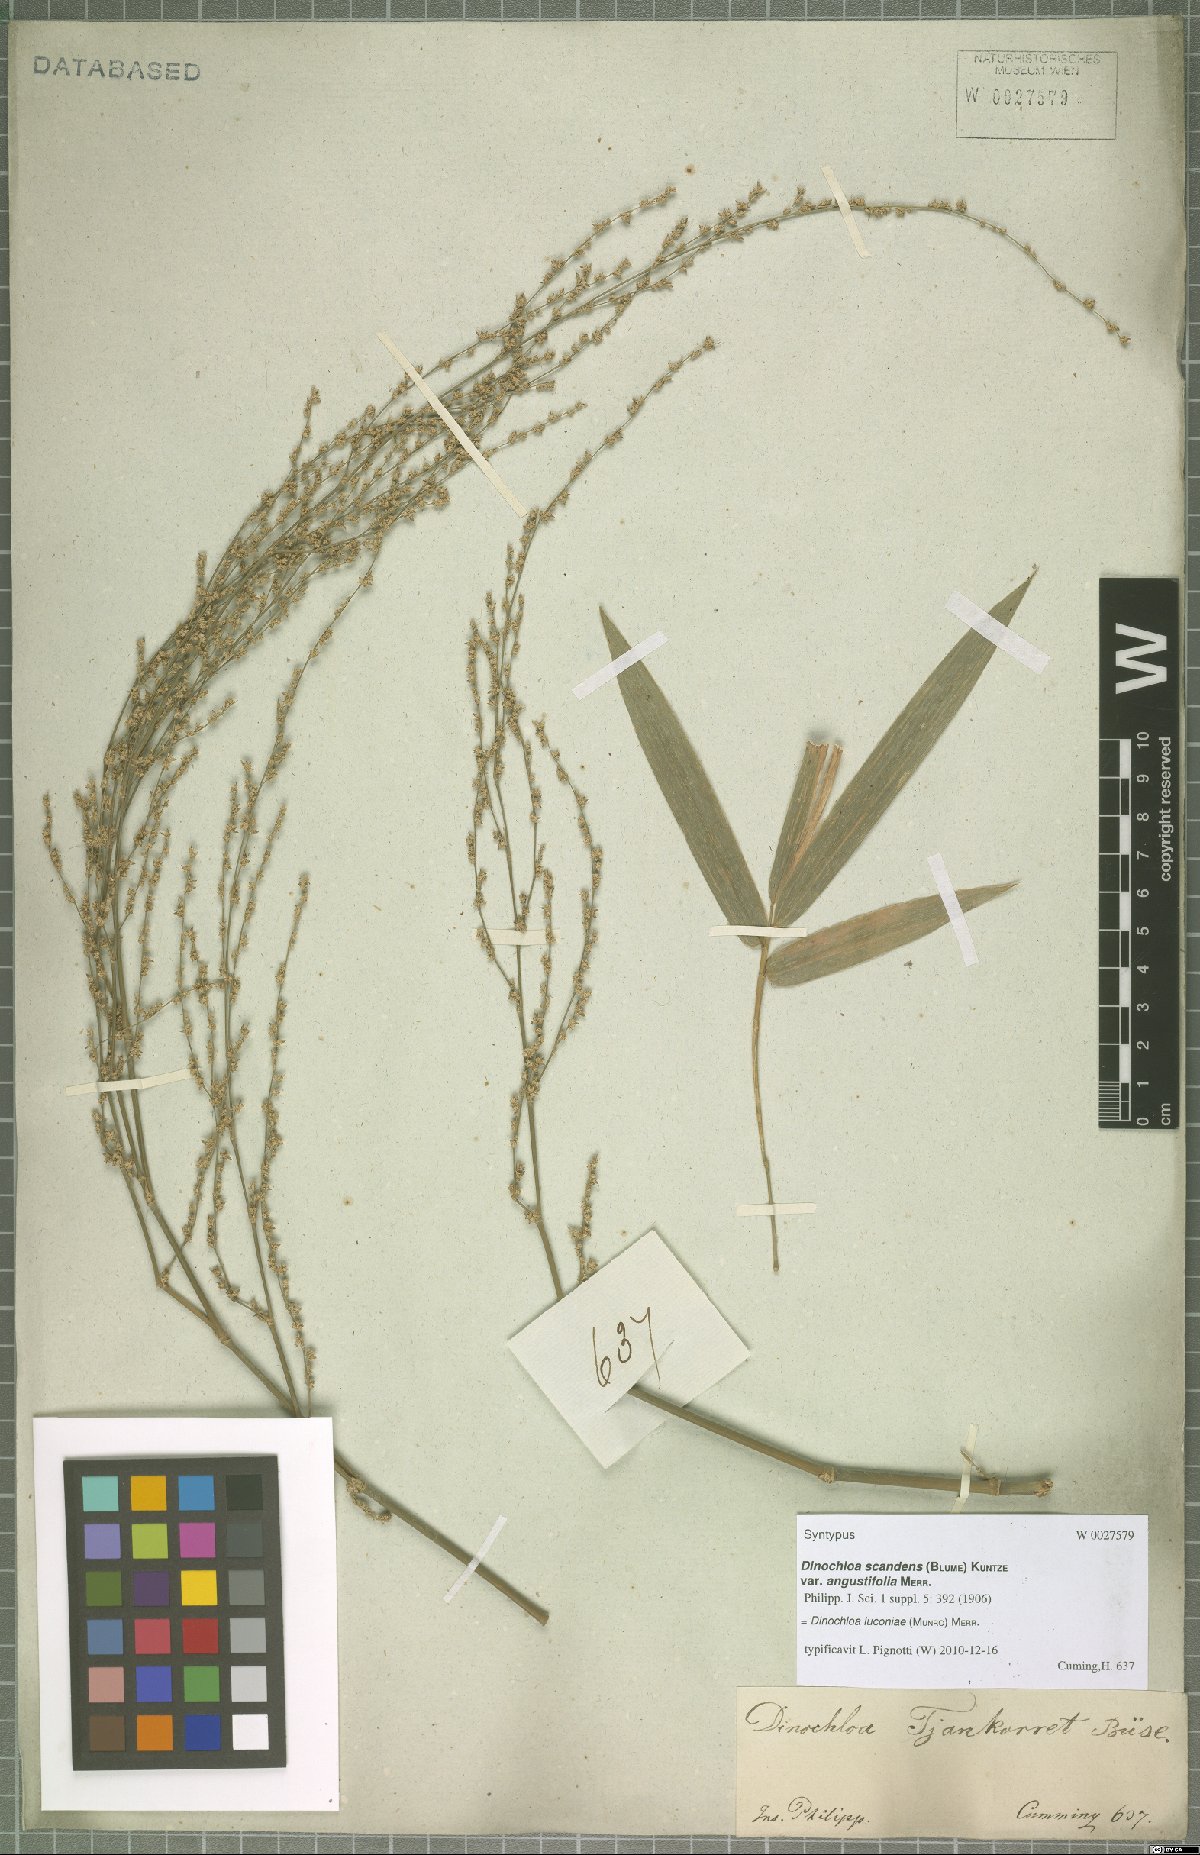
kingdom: Plantae
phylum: Tracheophyta
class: Liliopsida
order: Poales
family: Poaceae
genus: Dinochloa
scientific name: Dinochloa luconiae
